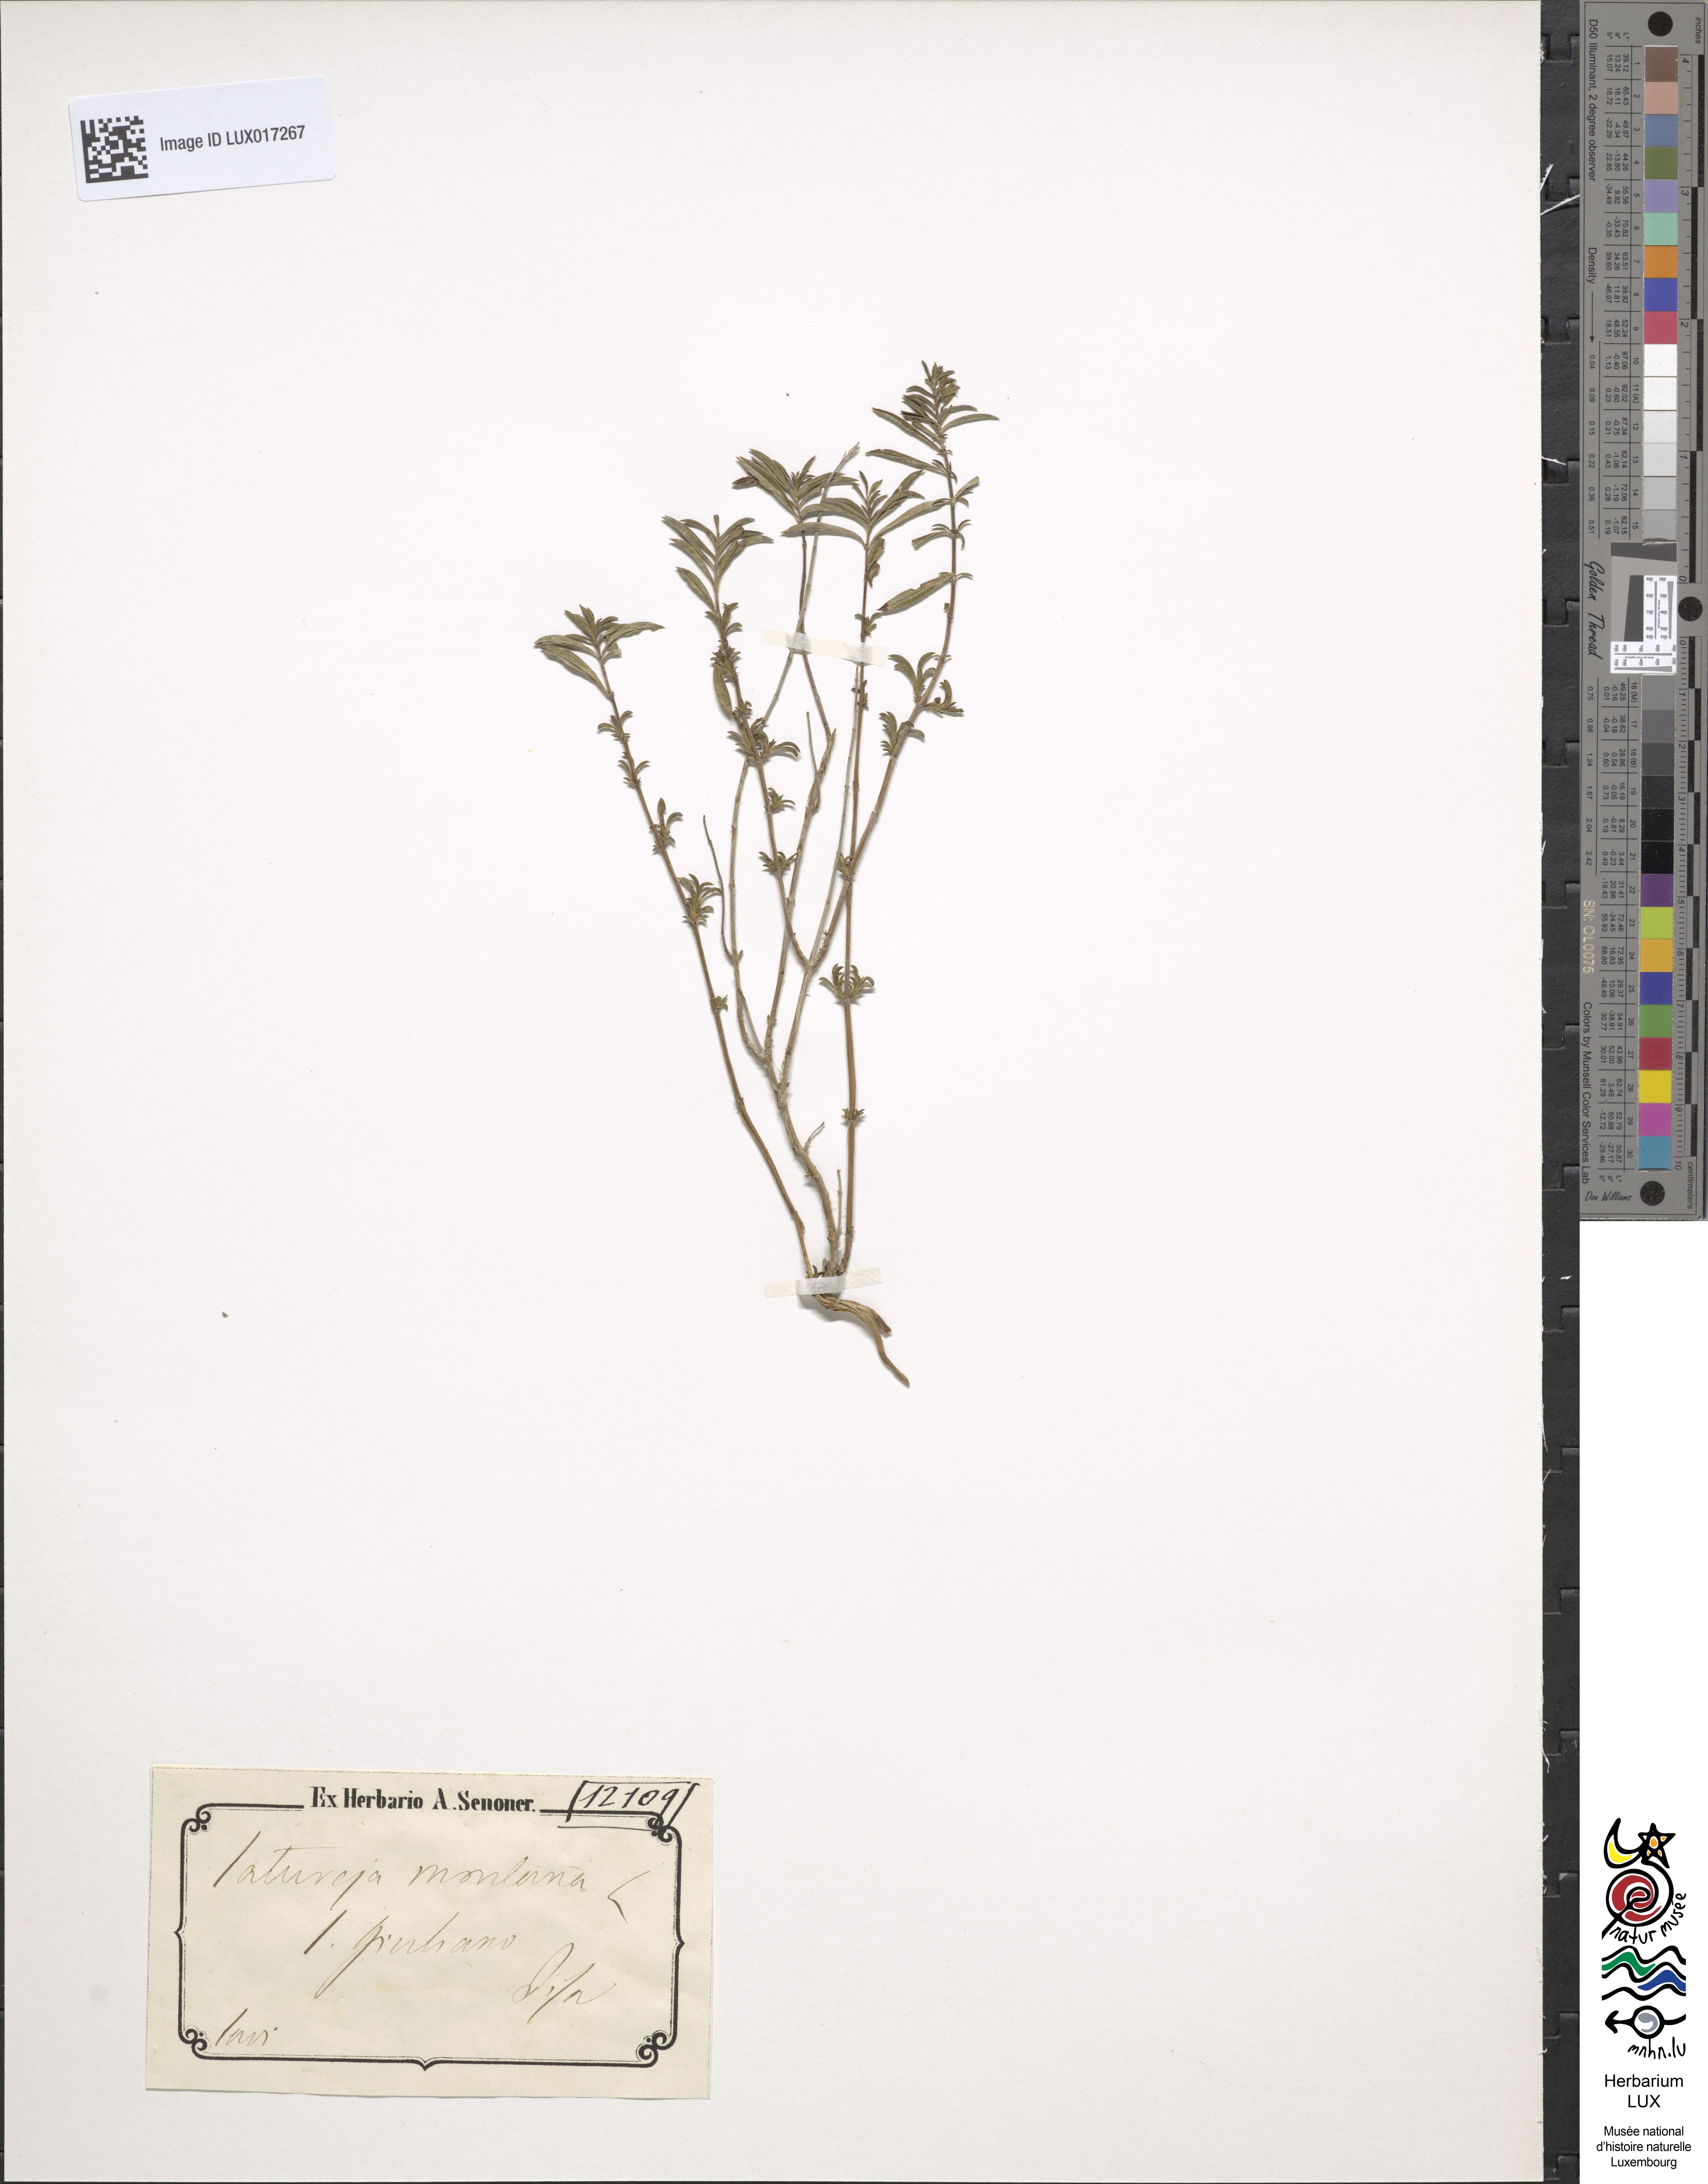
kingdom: Plantae
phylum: Tracheophyta
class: Magnoliopsida
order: Lamiales
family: Lamiaceae
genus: Satureja
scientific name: Satureja montana
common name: Winter savory
